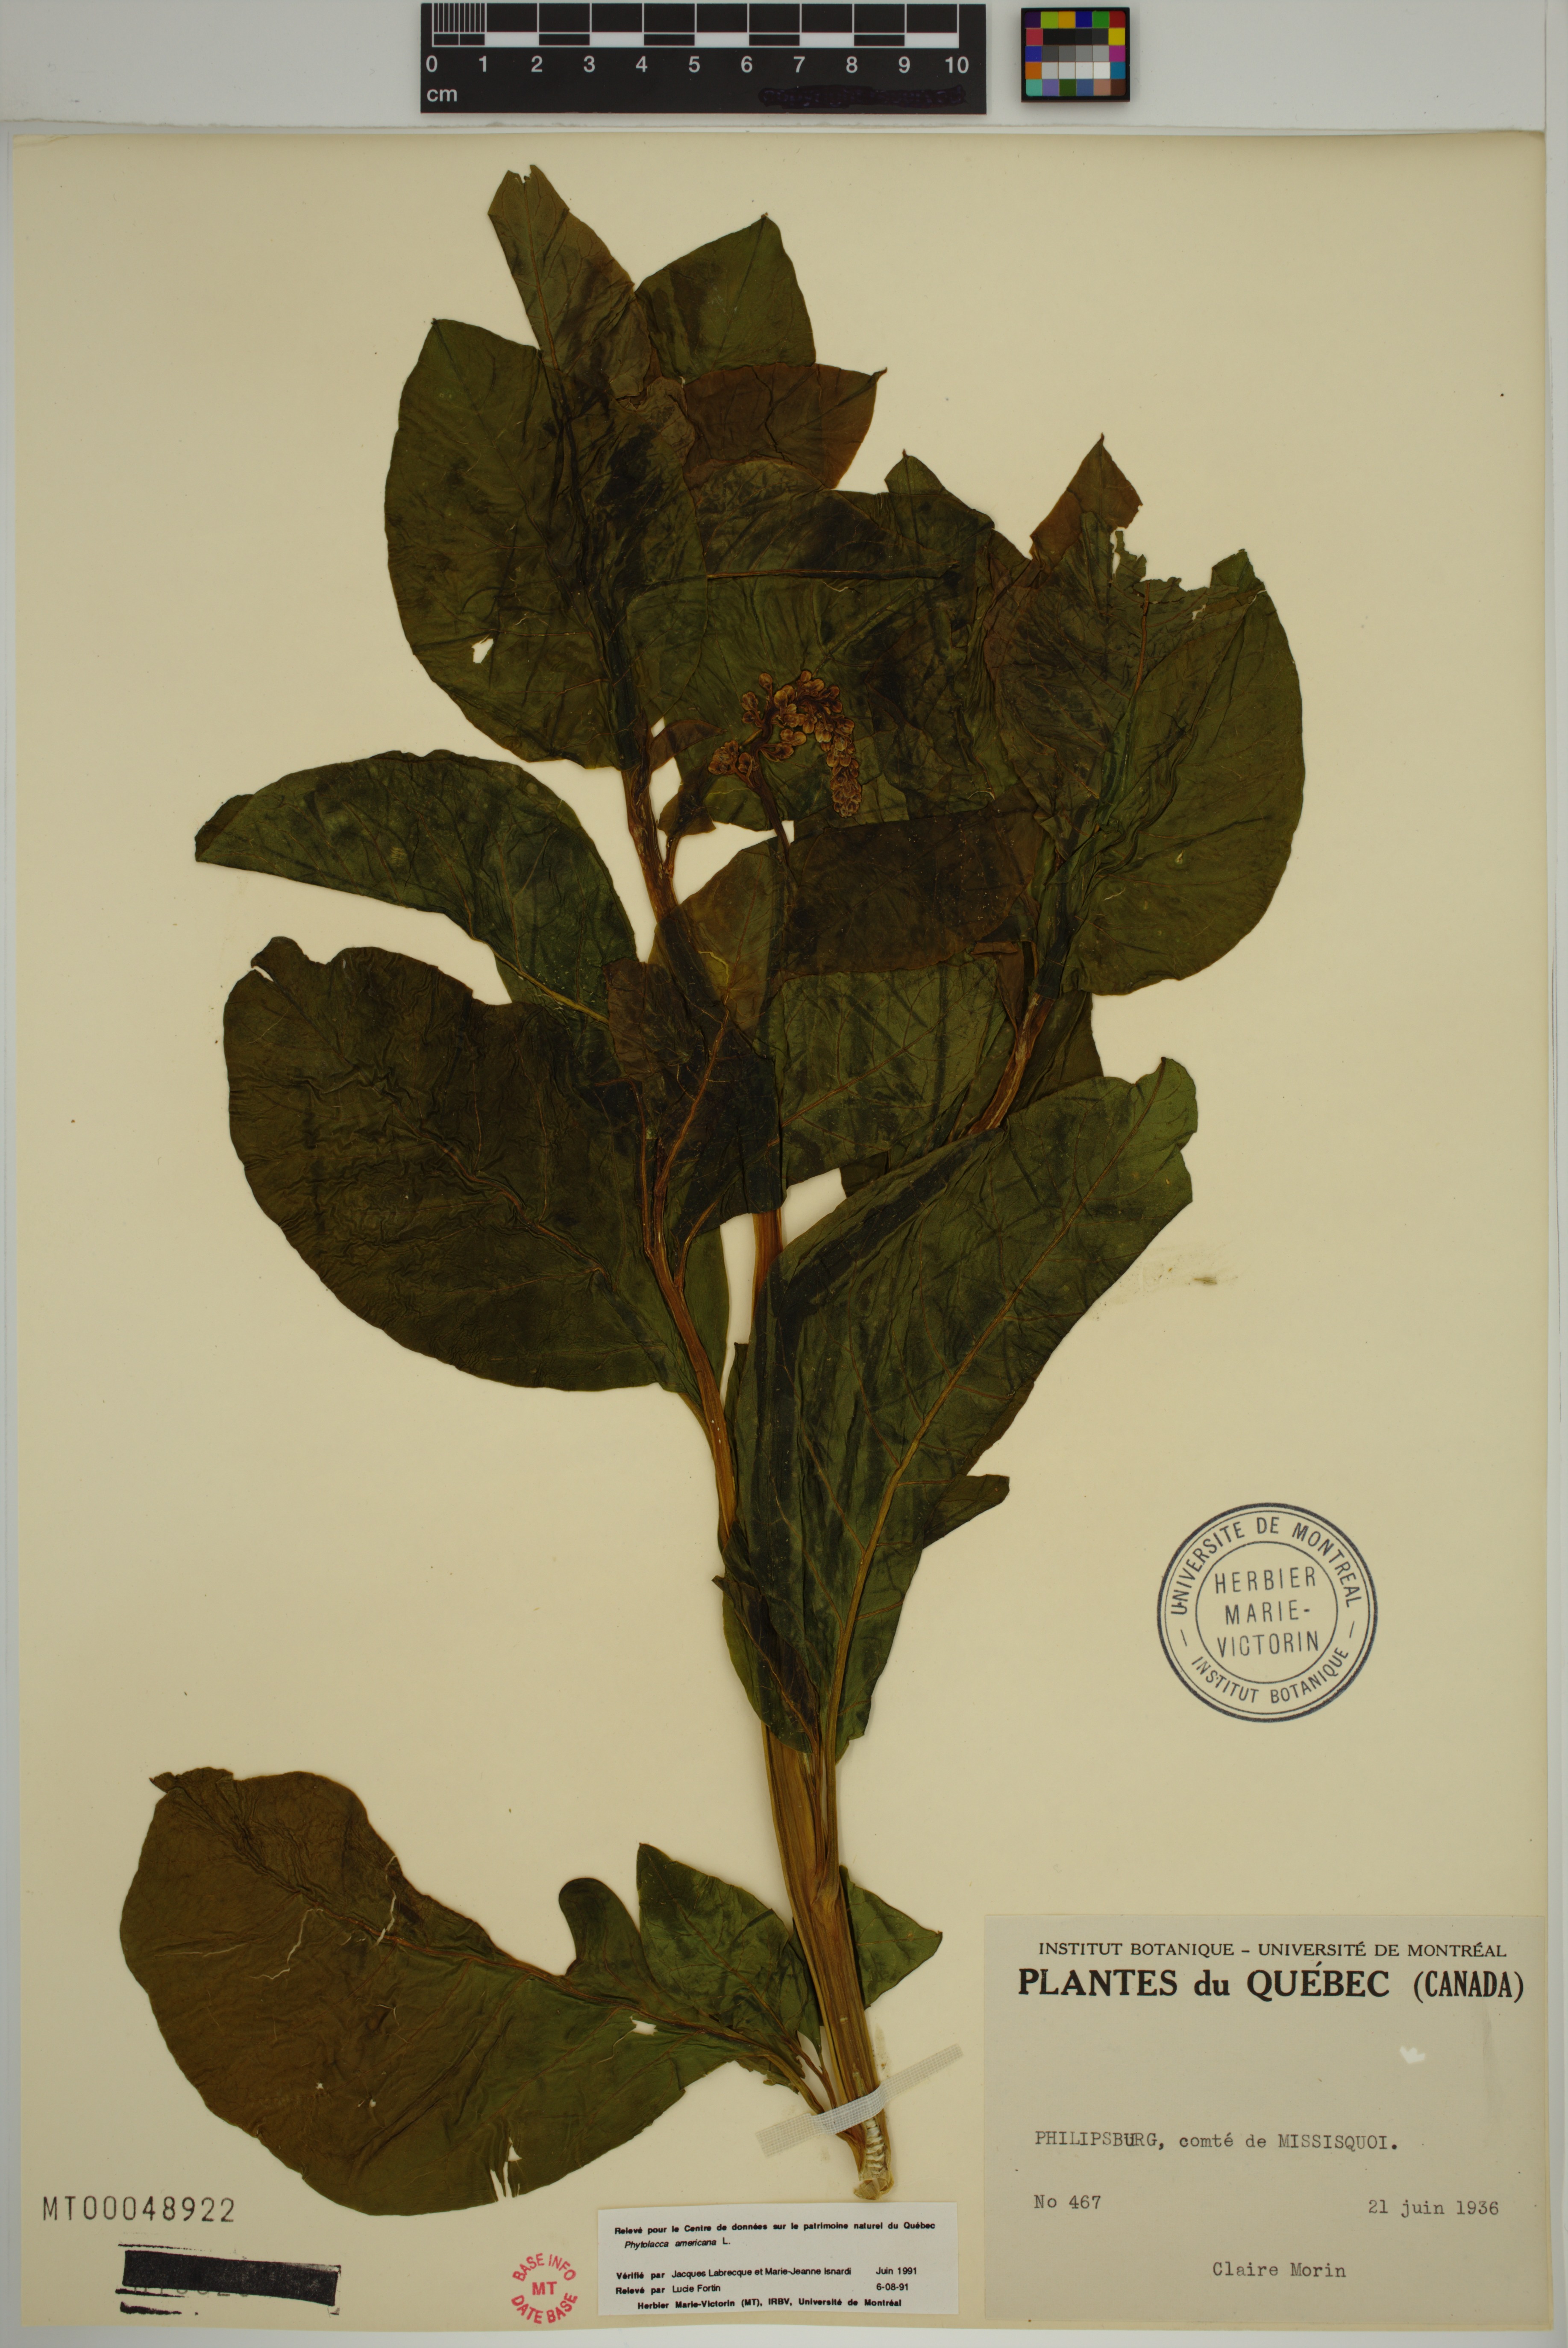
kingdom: Plantae
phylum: Tracheophyta
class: Magnoliopsida
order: Caryophyllales
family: Phytolaccaceae
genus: Phytolacca
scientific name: Phytolacca americana
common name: American pokeweed
